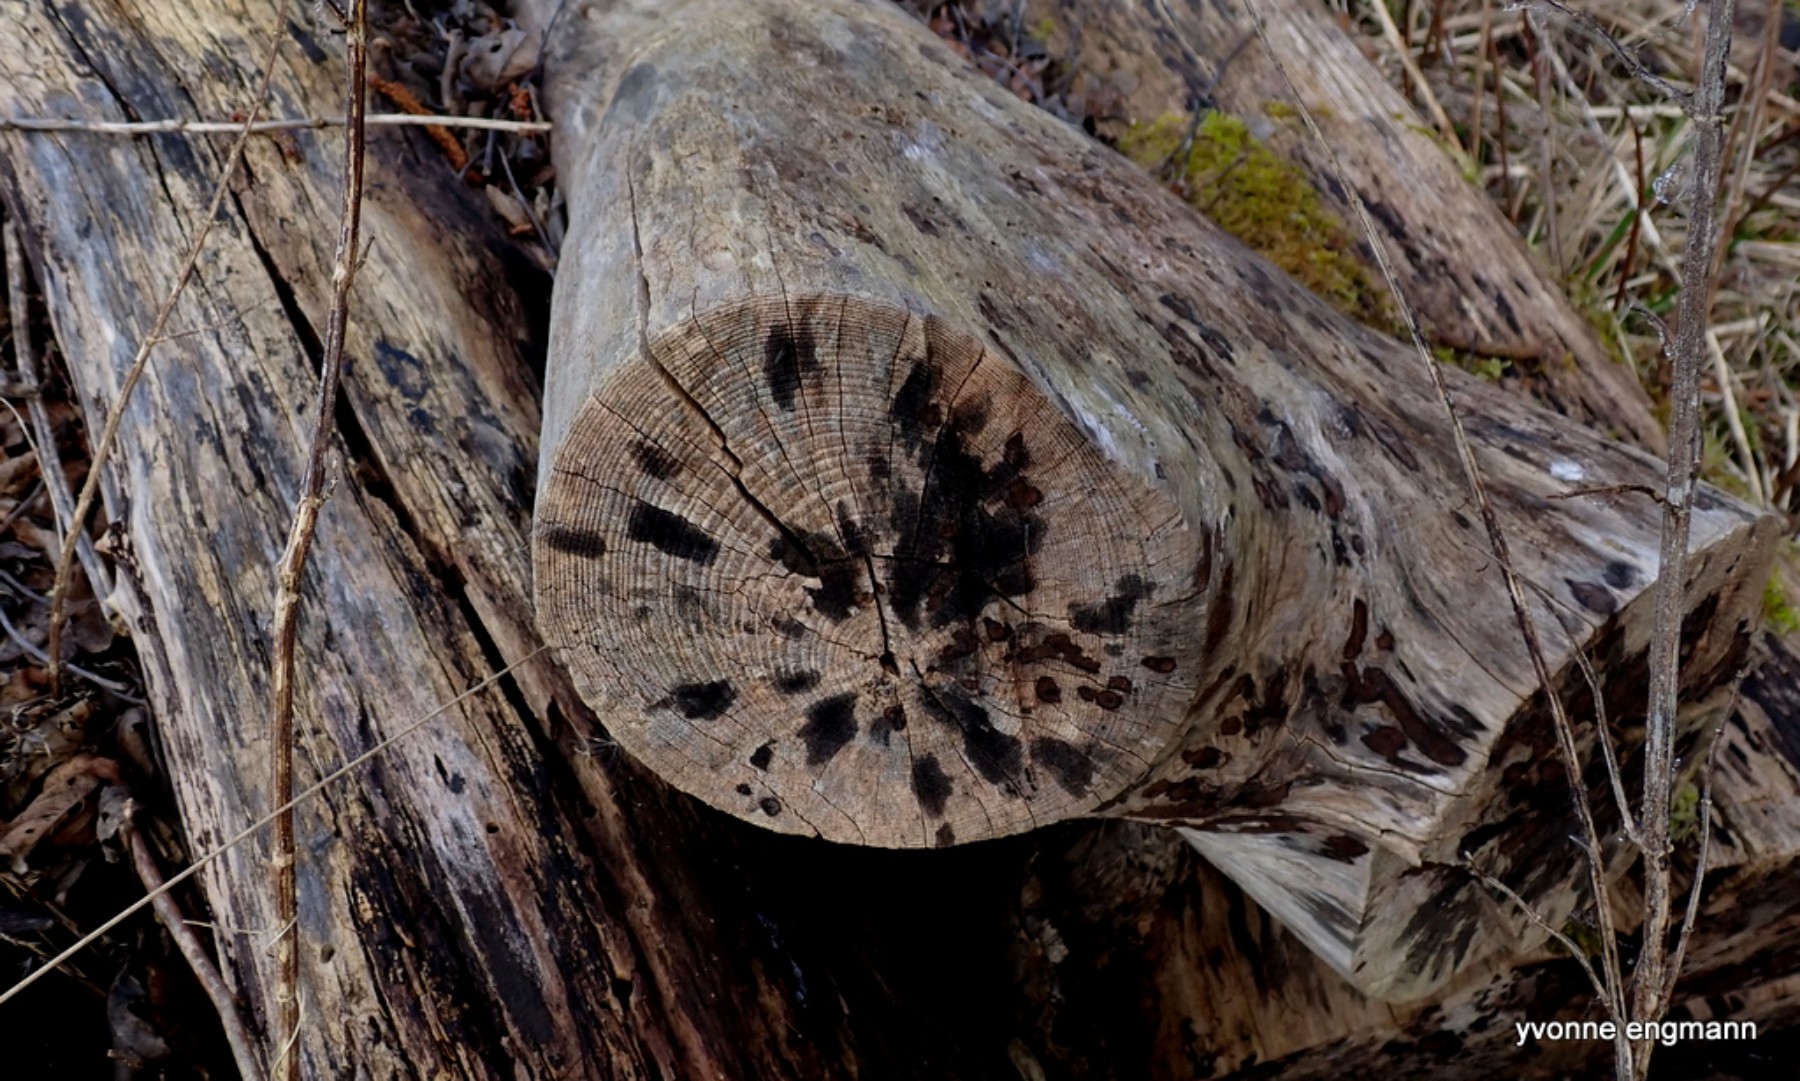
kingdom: Fungi
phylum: Ascomycota
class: Leotiomycetes
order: Helotiales
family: Helotiaceae
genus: Bispora
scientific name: Bispora pallescens
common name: måtte-snitskive
